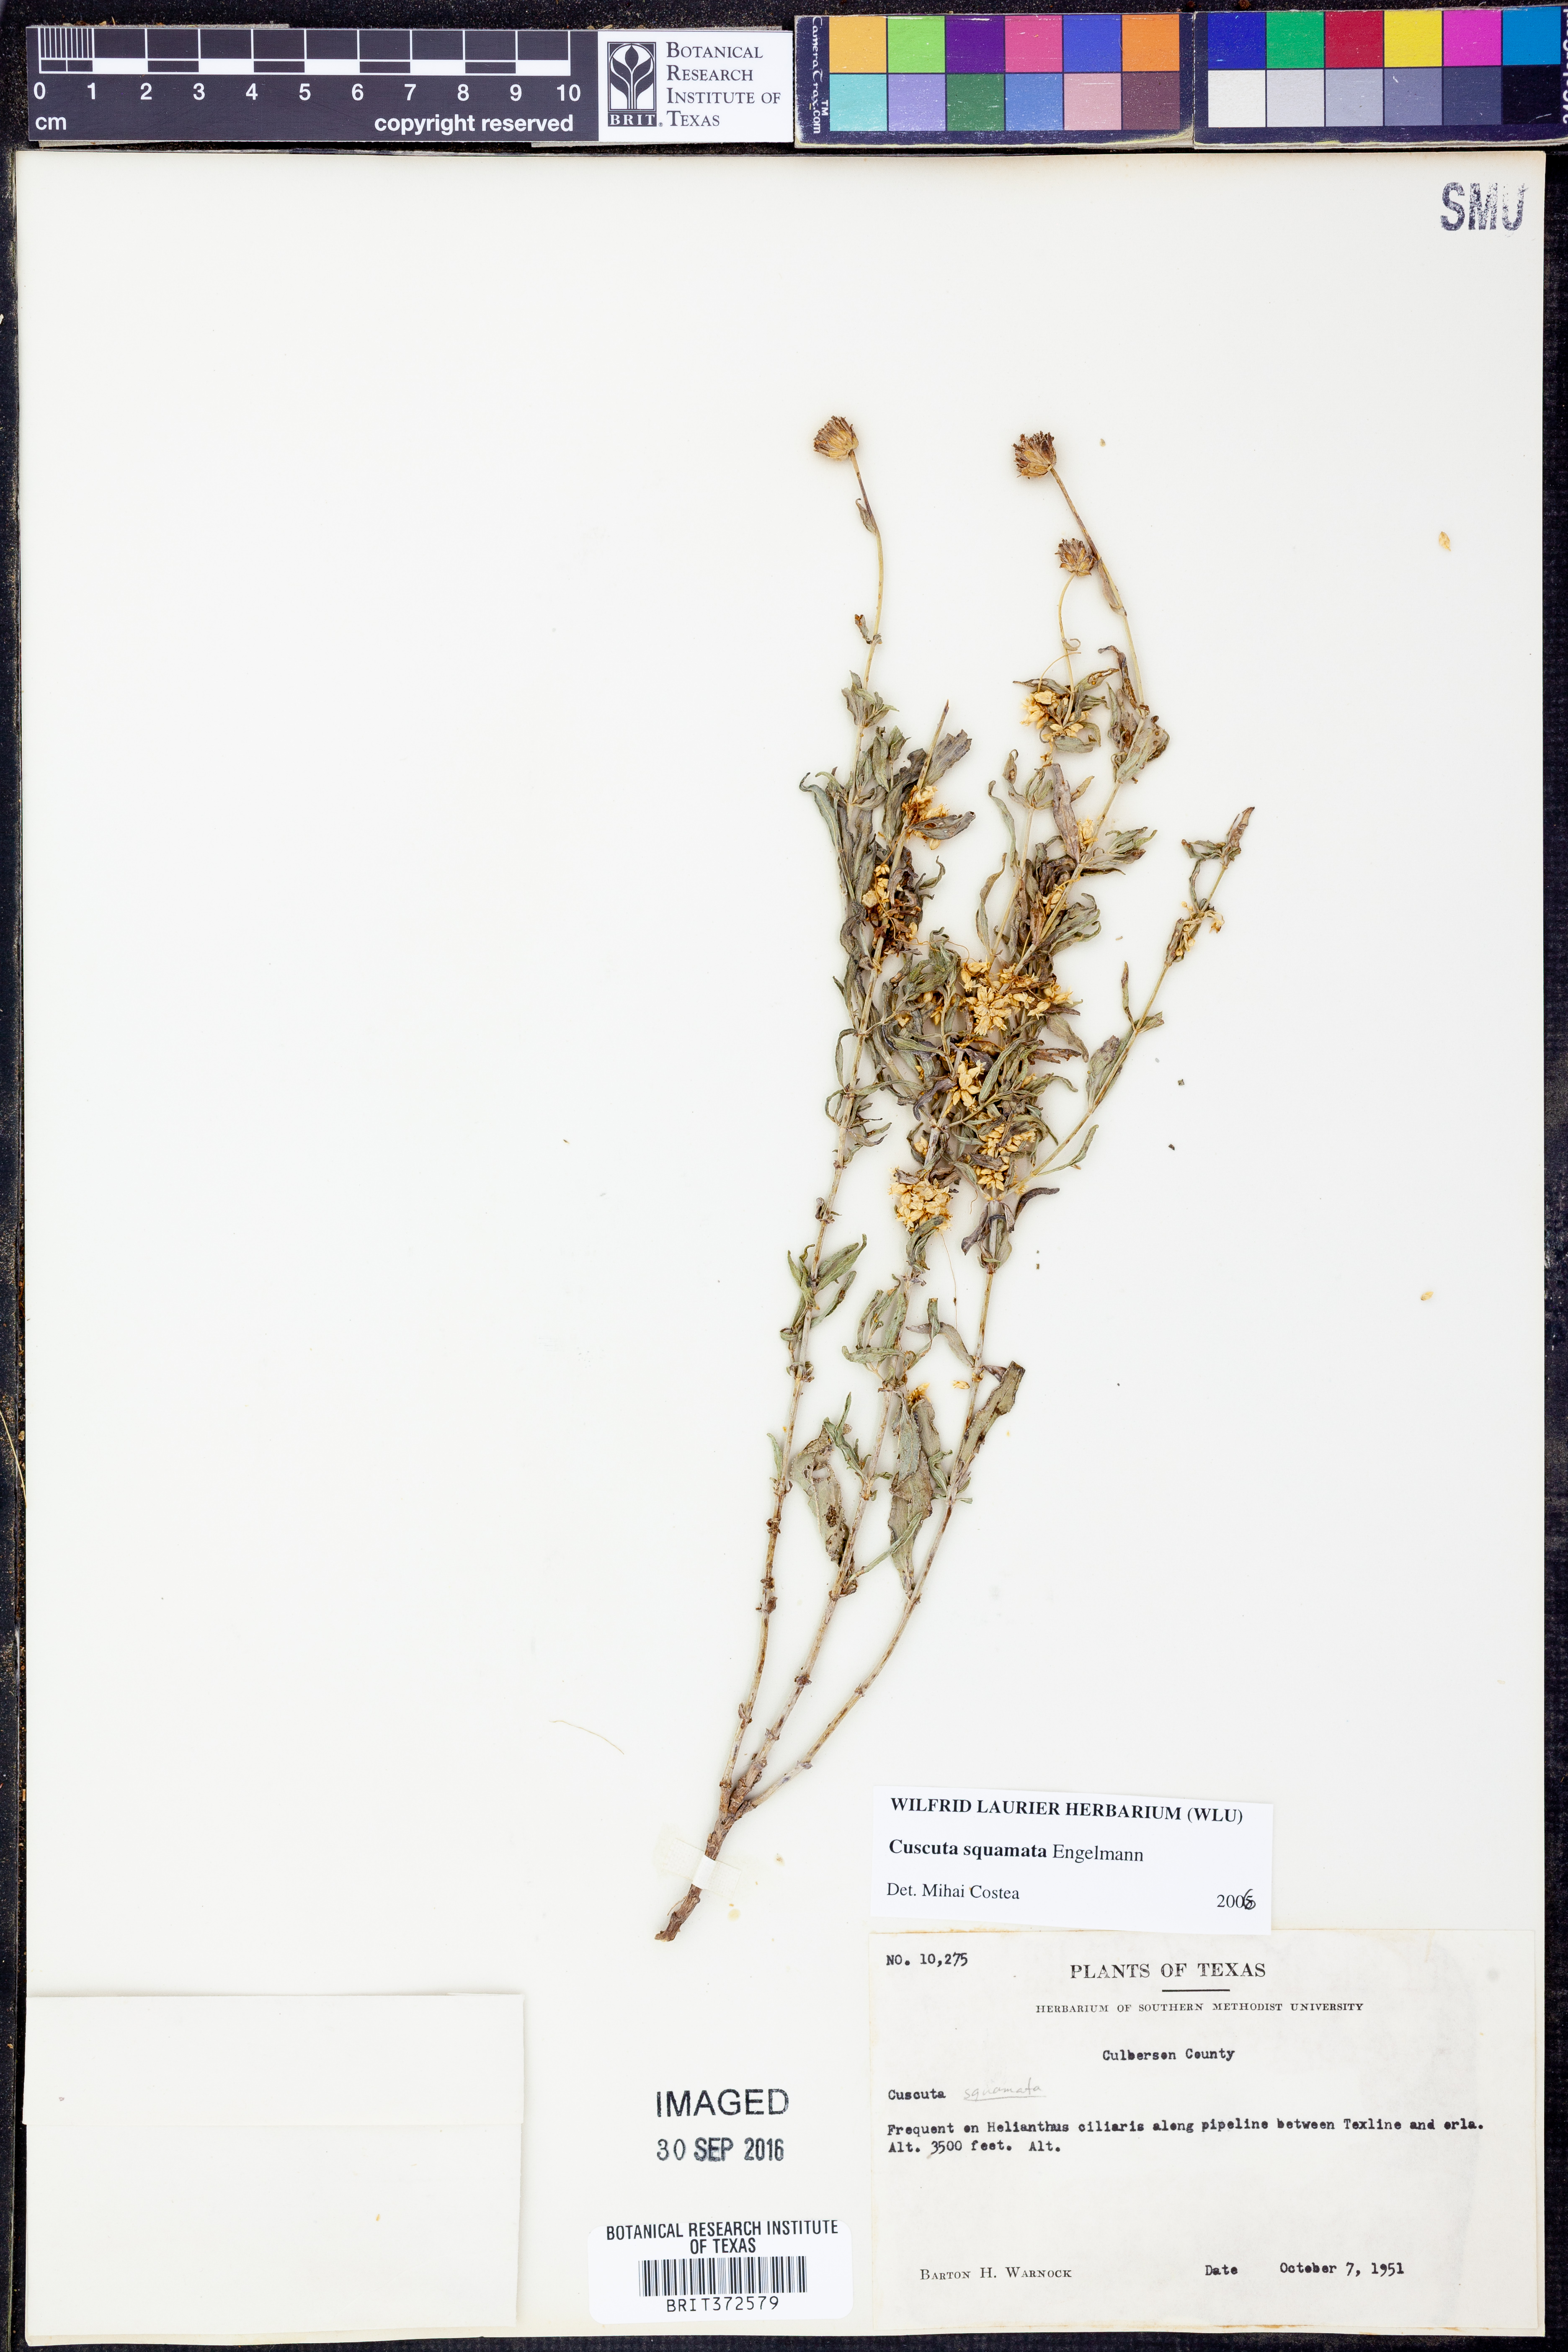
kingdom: Plantae
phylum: Tracheophyta
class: Magnoliopsida
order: Solanales
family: Convolvulaceae
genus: Cuscuta
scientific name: Cuscuta squamata
